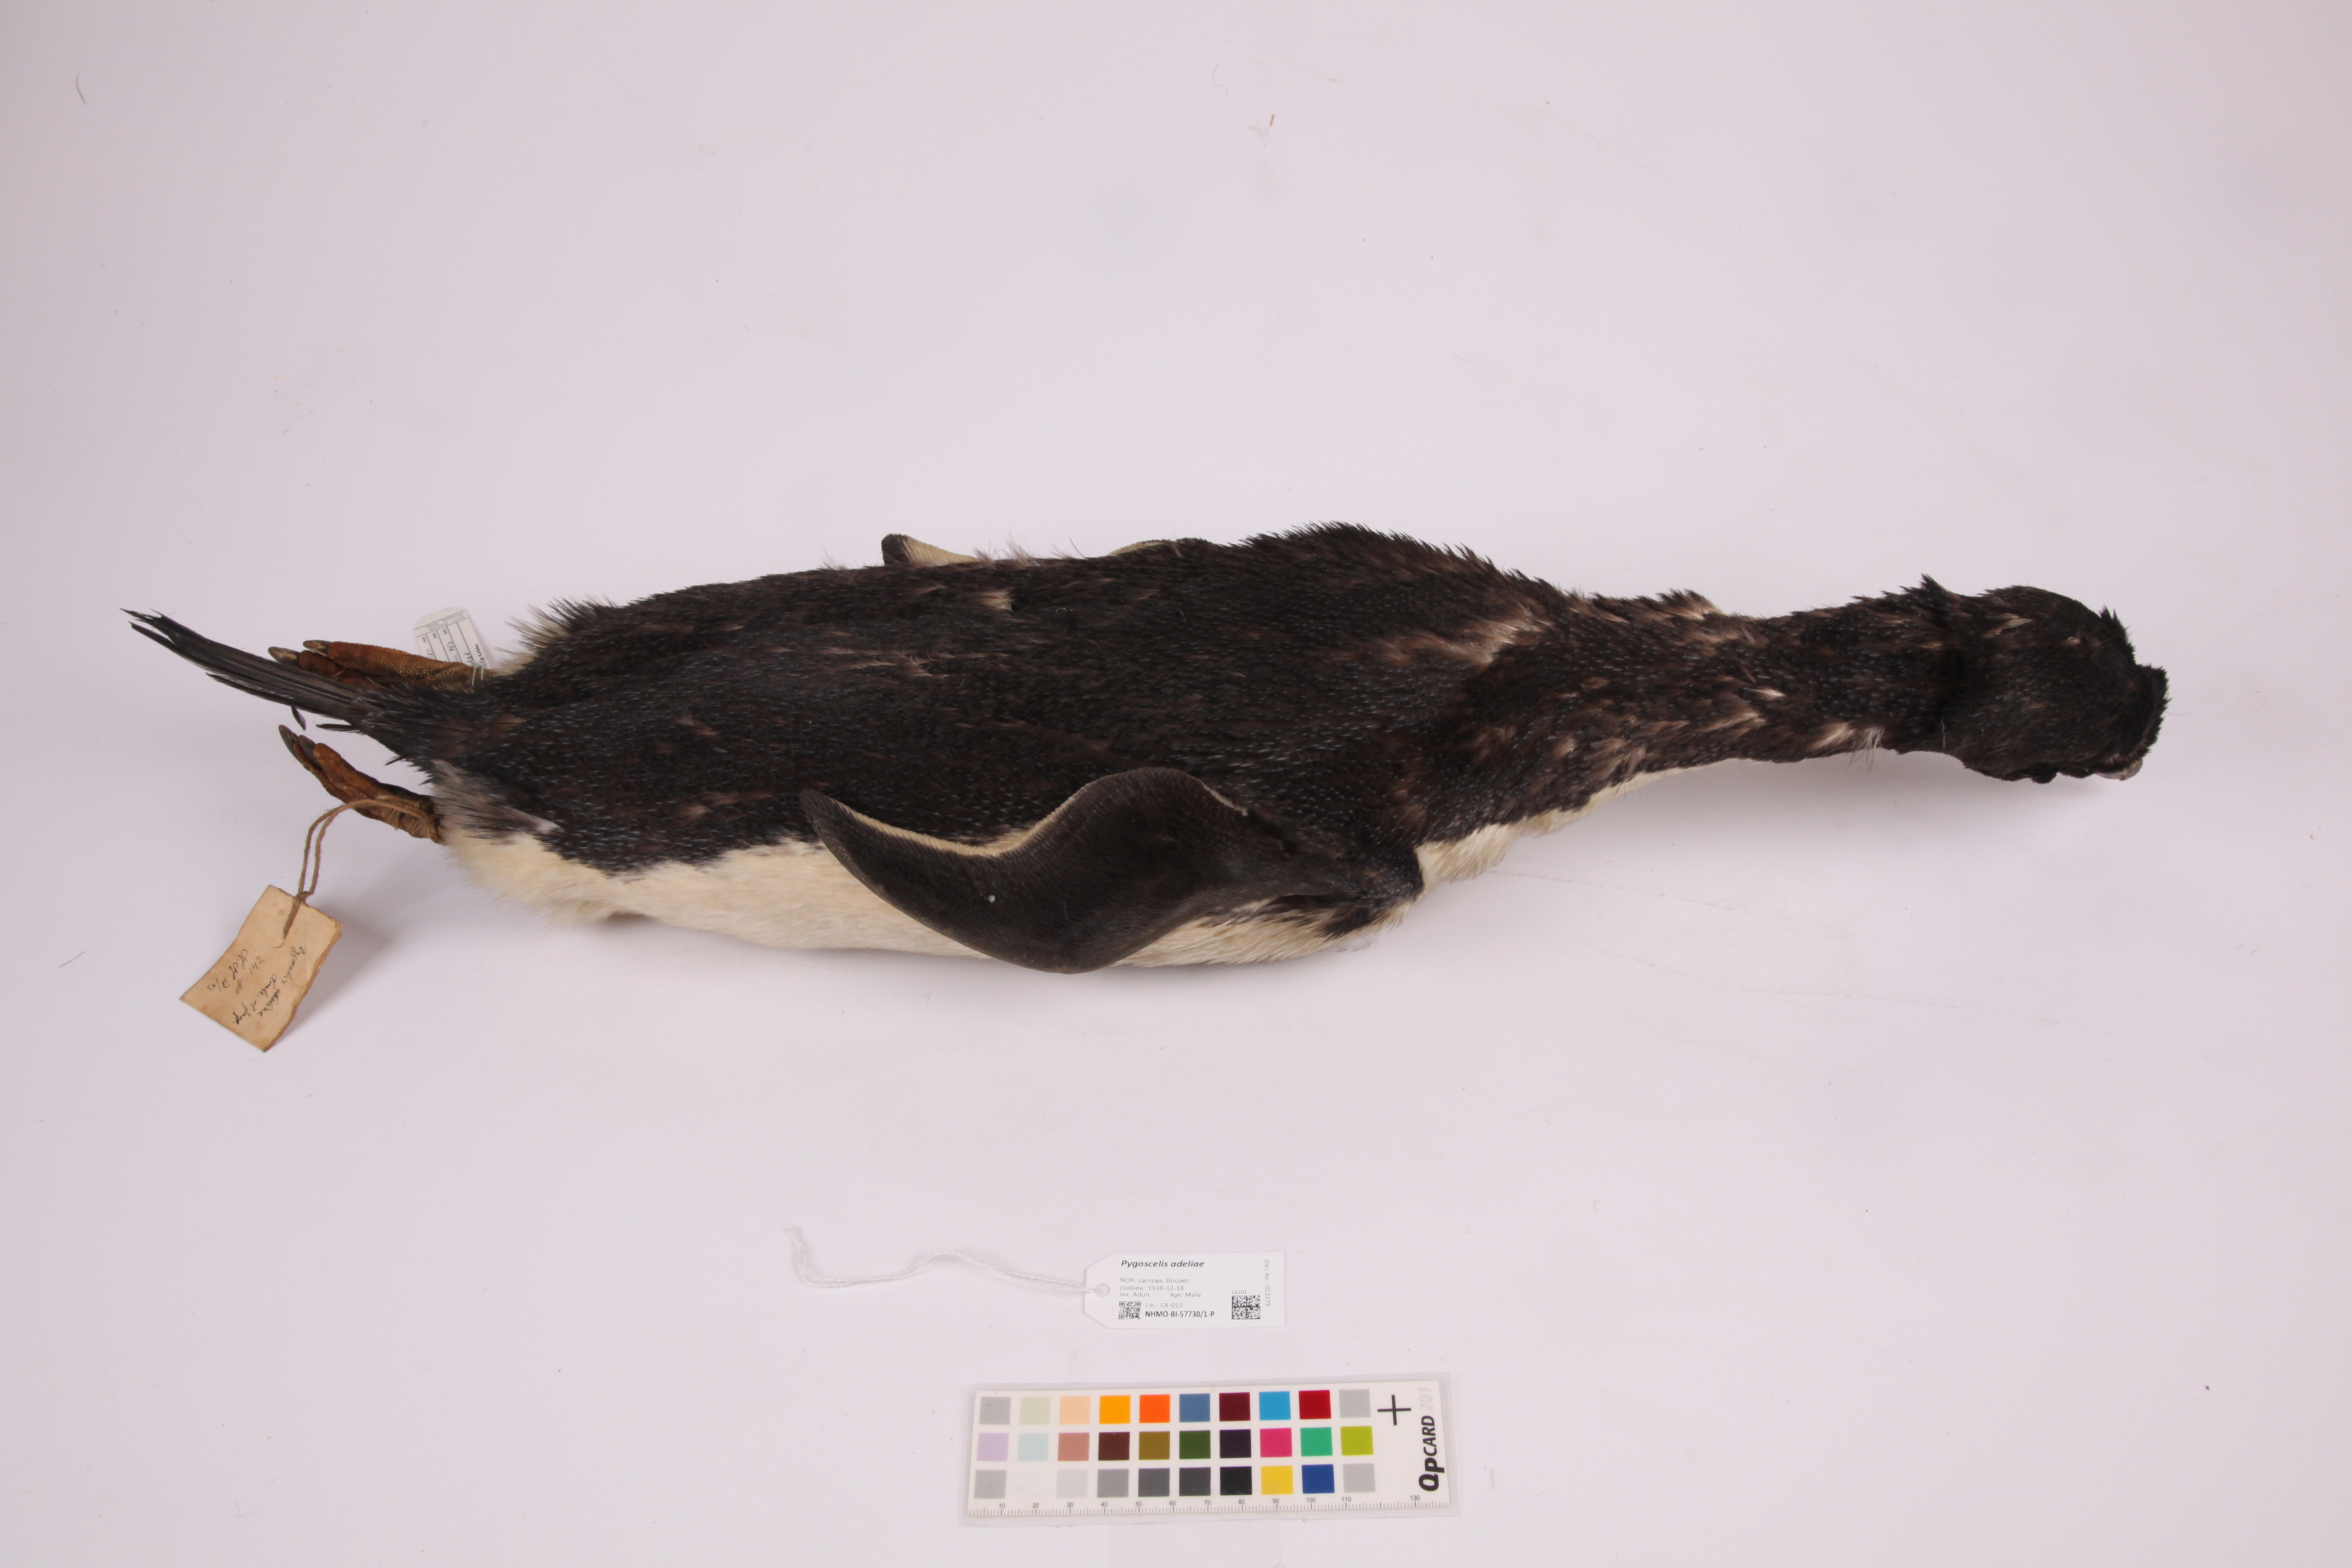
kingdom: Animalia
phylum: Chordata
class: Aves
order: Sphenisciformes
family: Spheniscidae
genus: Pygoscelis
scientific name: Pygoscelis adeliae
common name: Adelie penguin
